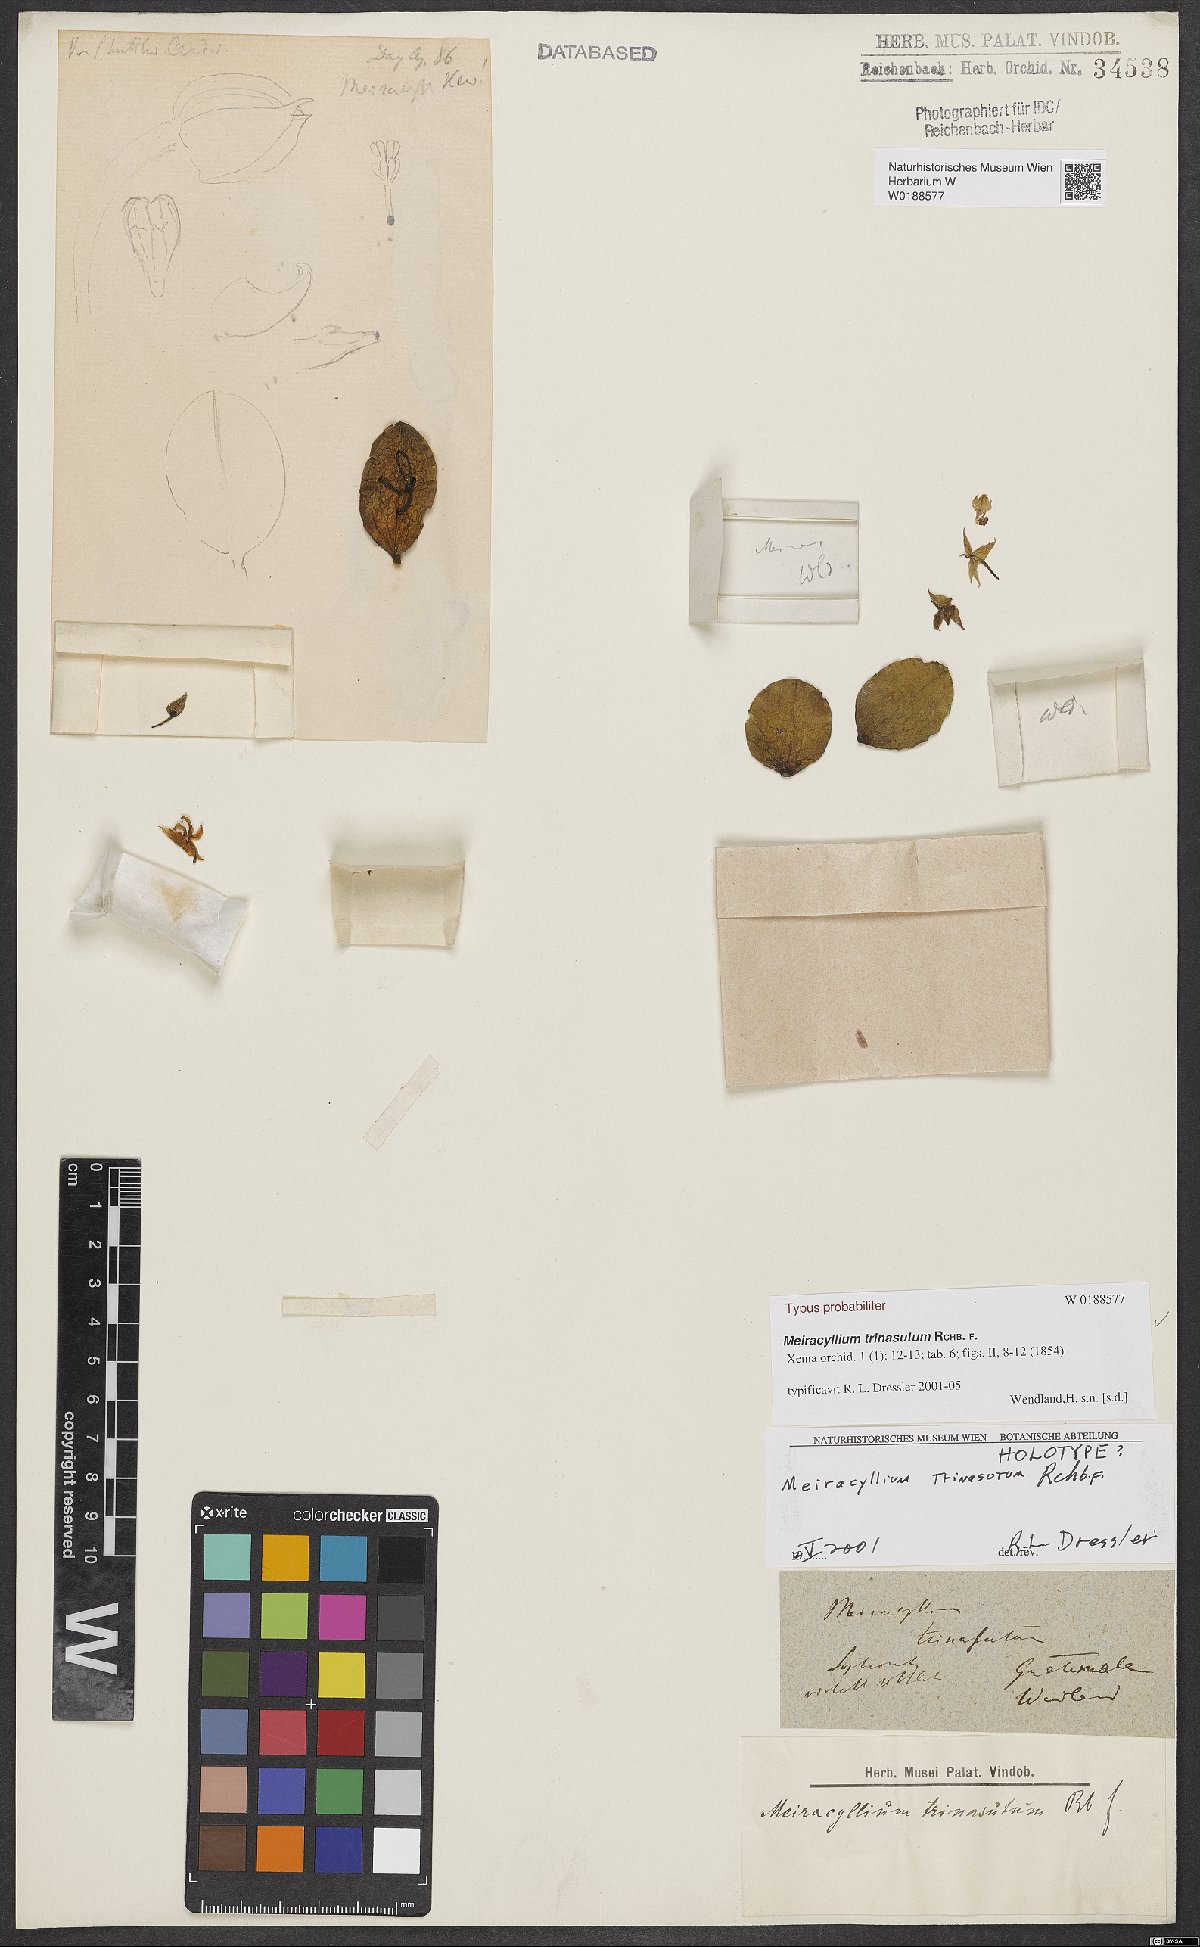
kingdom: Plantae
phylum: Tracheophyta
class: Liliopsida
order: Asparagales
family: Orchidaceae
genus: Meiracyllium
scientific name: Meiracyllium trinasutum
